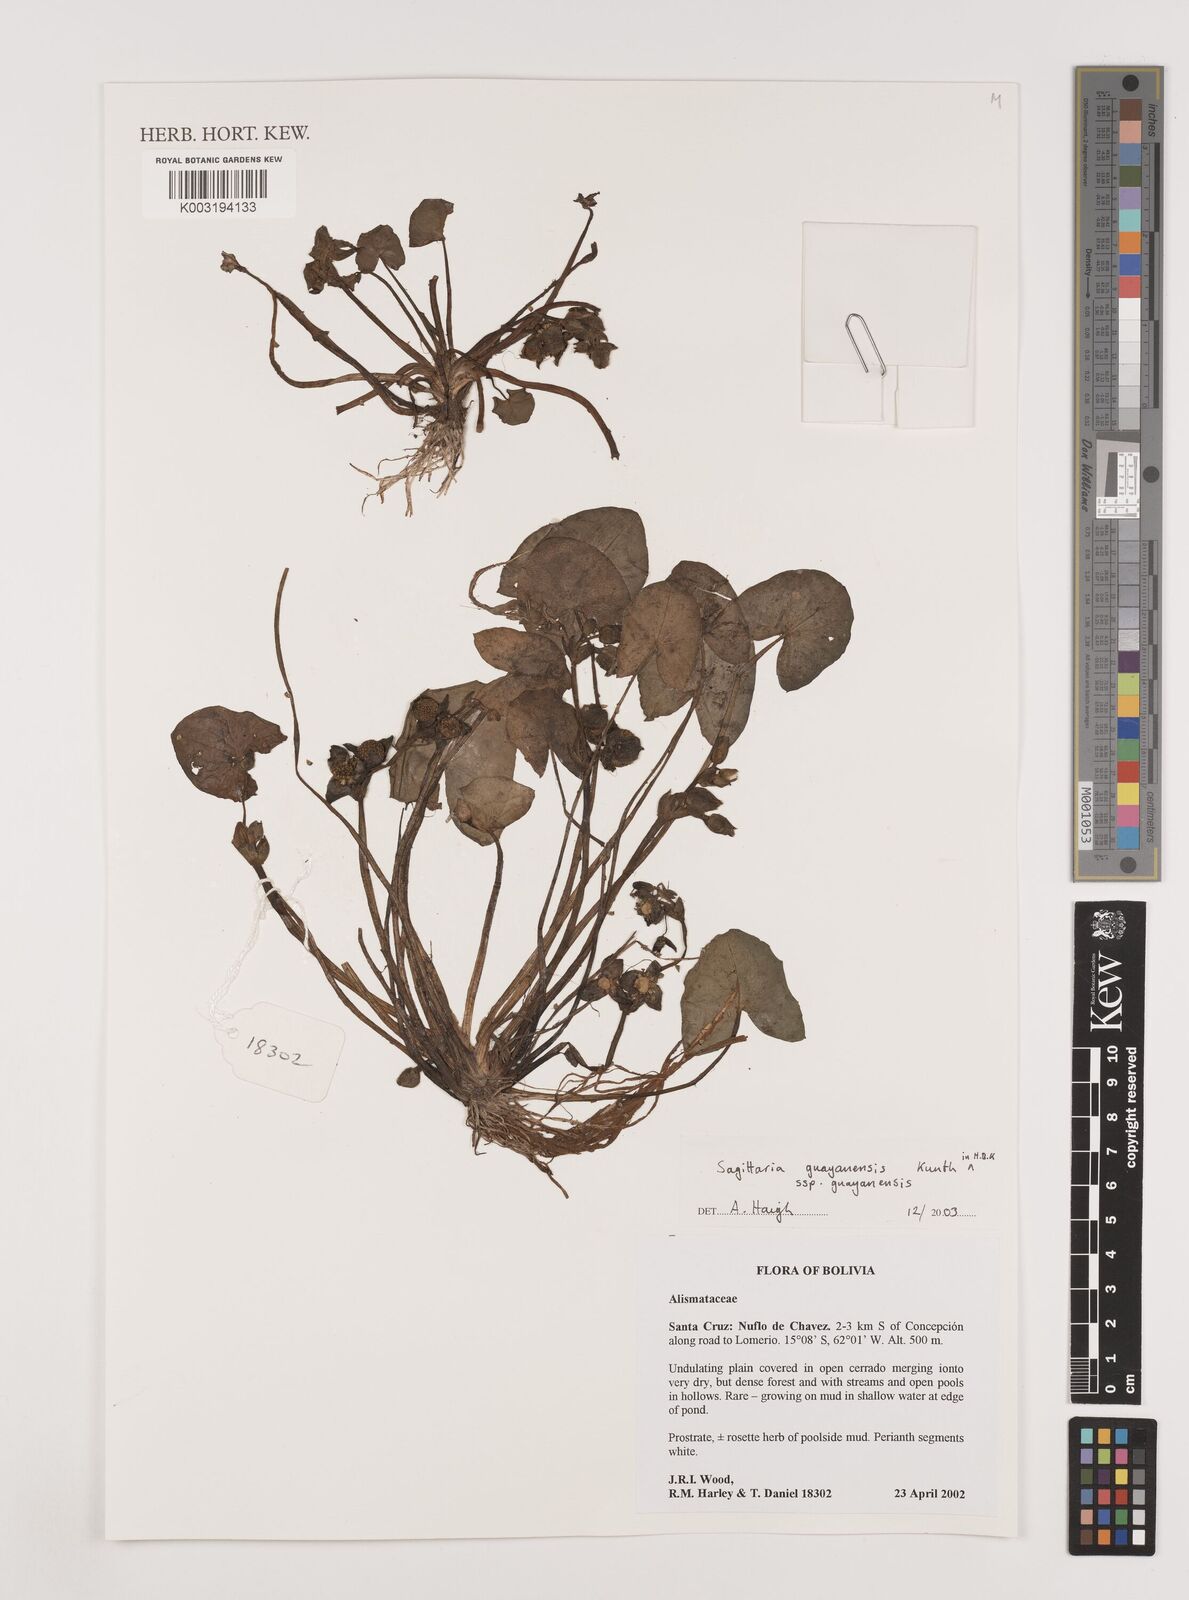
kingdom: Plantae
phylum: Tracheophyta
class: Liliopsida
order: Alismatales
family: Alismataceae
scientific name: Alismataceae
